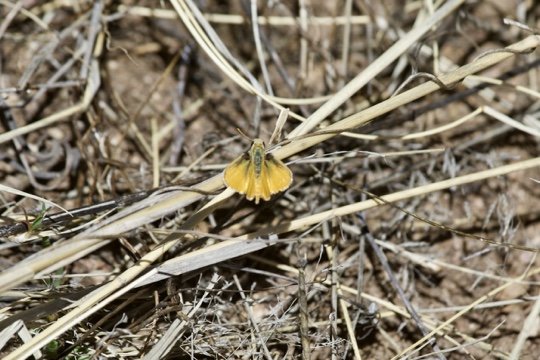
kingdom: Animalia
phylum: Arthropoda
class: Insecta
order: Lepidoptera
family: Hesperiidae
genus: Copaeodes
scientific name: Copaeodes aurantiaca
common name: Orange Skipperling
